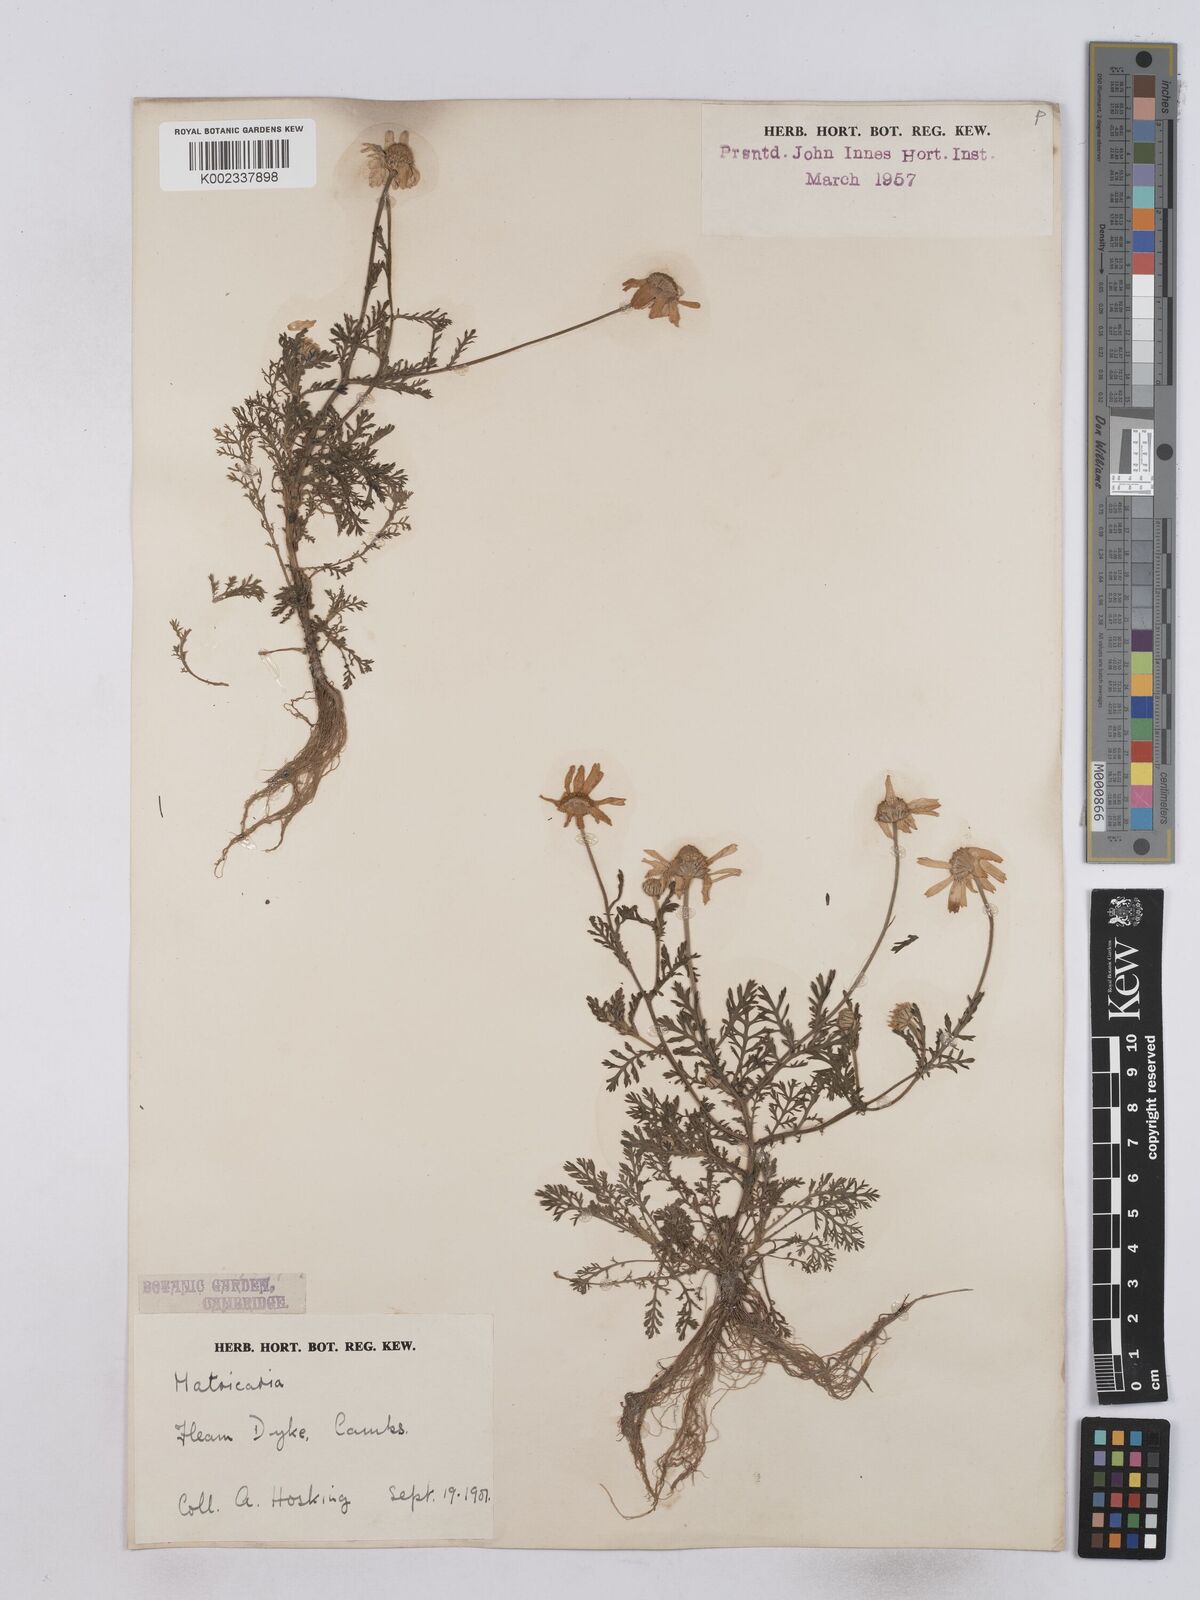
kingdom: Plantae
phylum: Tracheophyta
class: Magnoliopsida
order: Asterales
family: Asteraceae
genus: Matricaria
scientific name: Matricaria discoidea
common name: Disc mayweed
